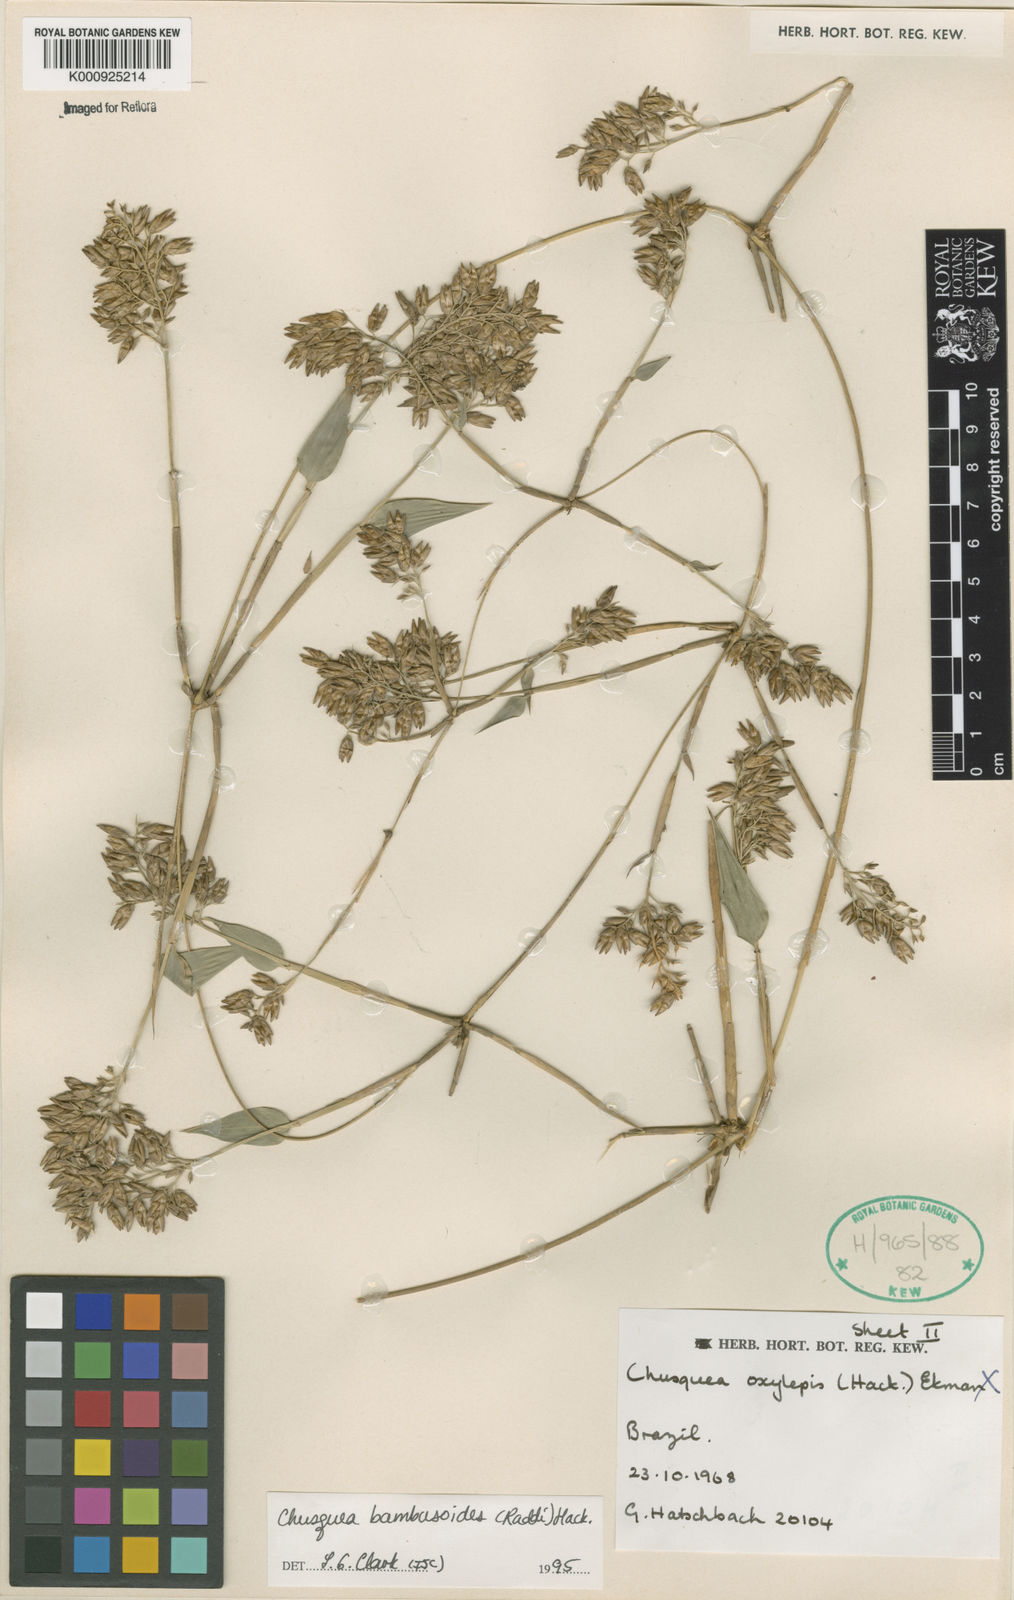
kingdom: Plantae
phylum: Tracheophyta
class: Liliopsida
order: Poales
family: Poaceae
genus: Chusquea
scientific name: Chusquea bambusoides
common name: Brazil scrambling bamboo
